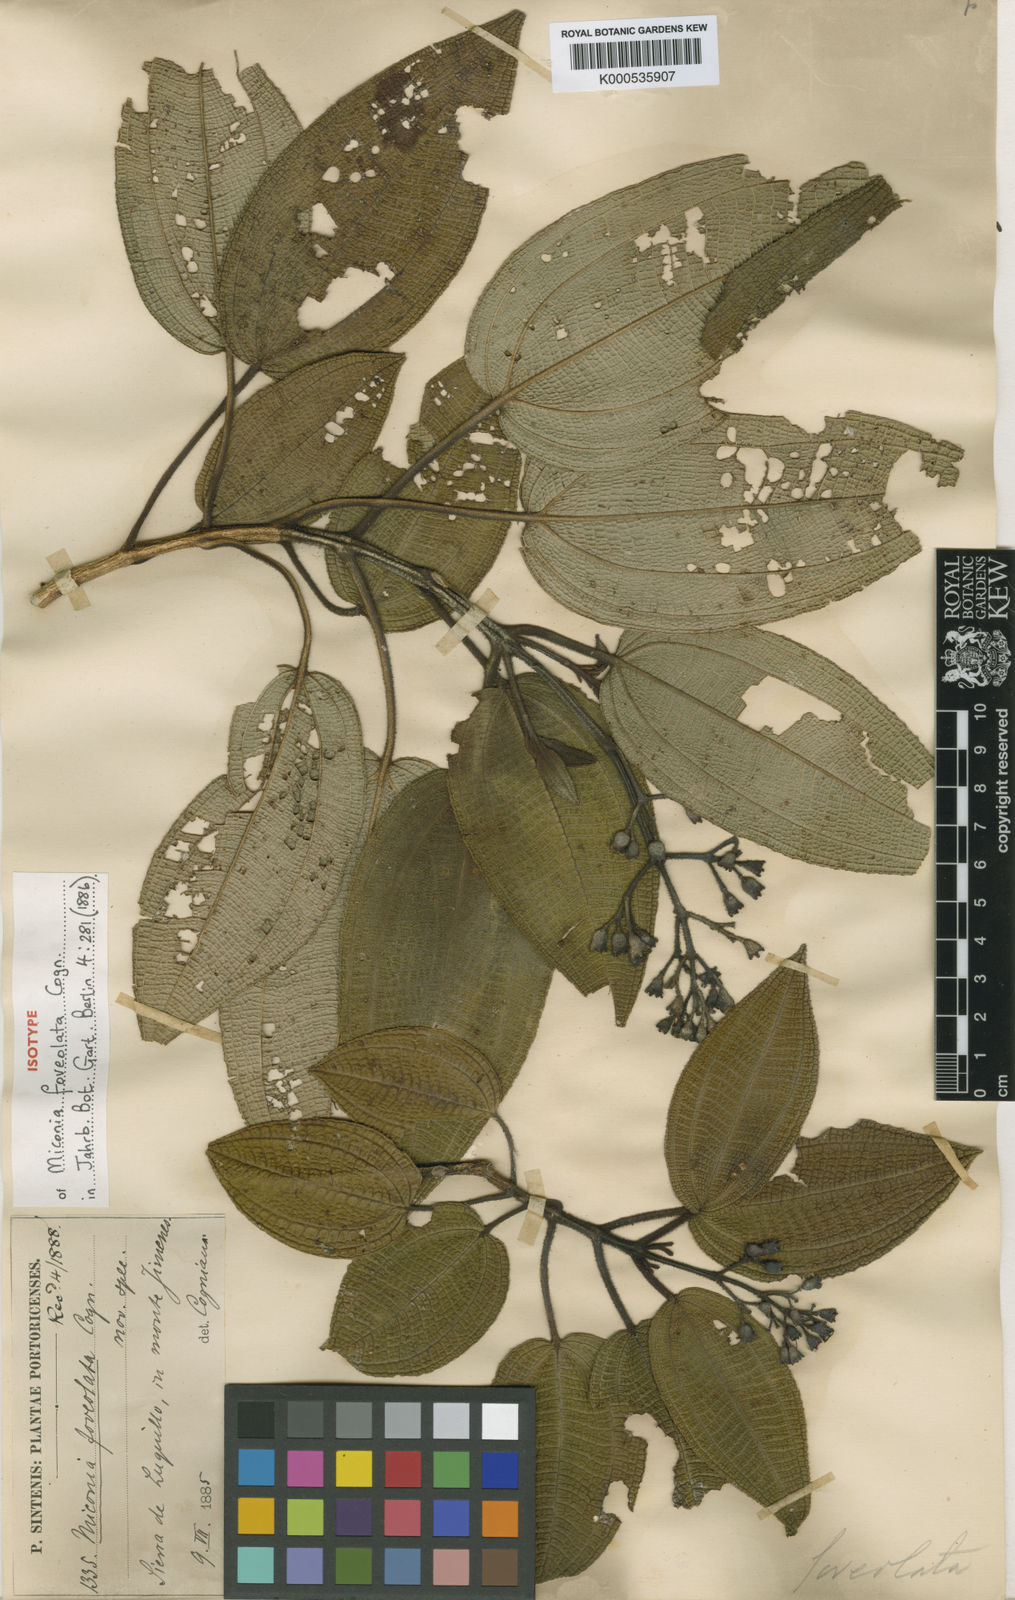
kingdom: Plantae
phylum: Tracheophyta
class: Magnoliopsida
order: Myrtales
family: Melastomataceae
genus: Miconia
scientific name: Miconia foveolata
